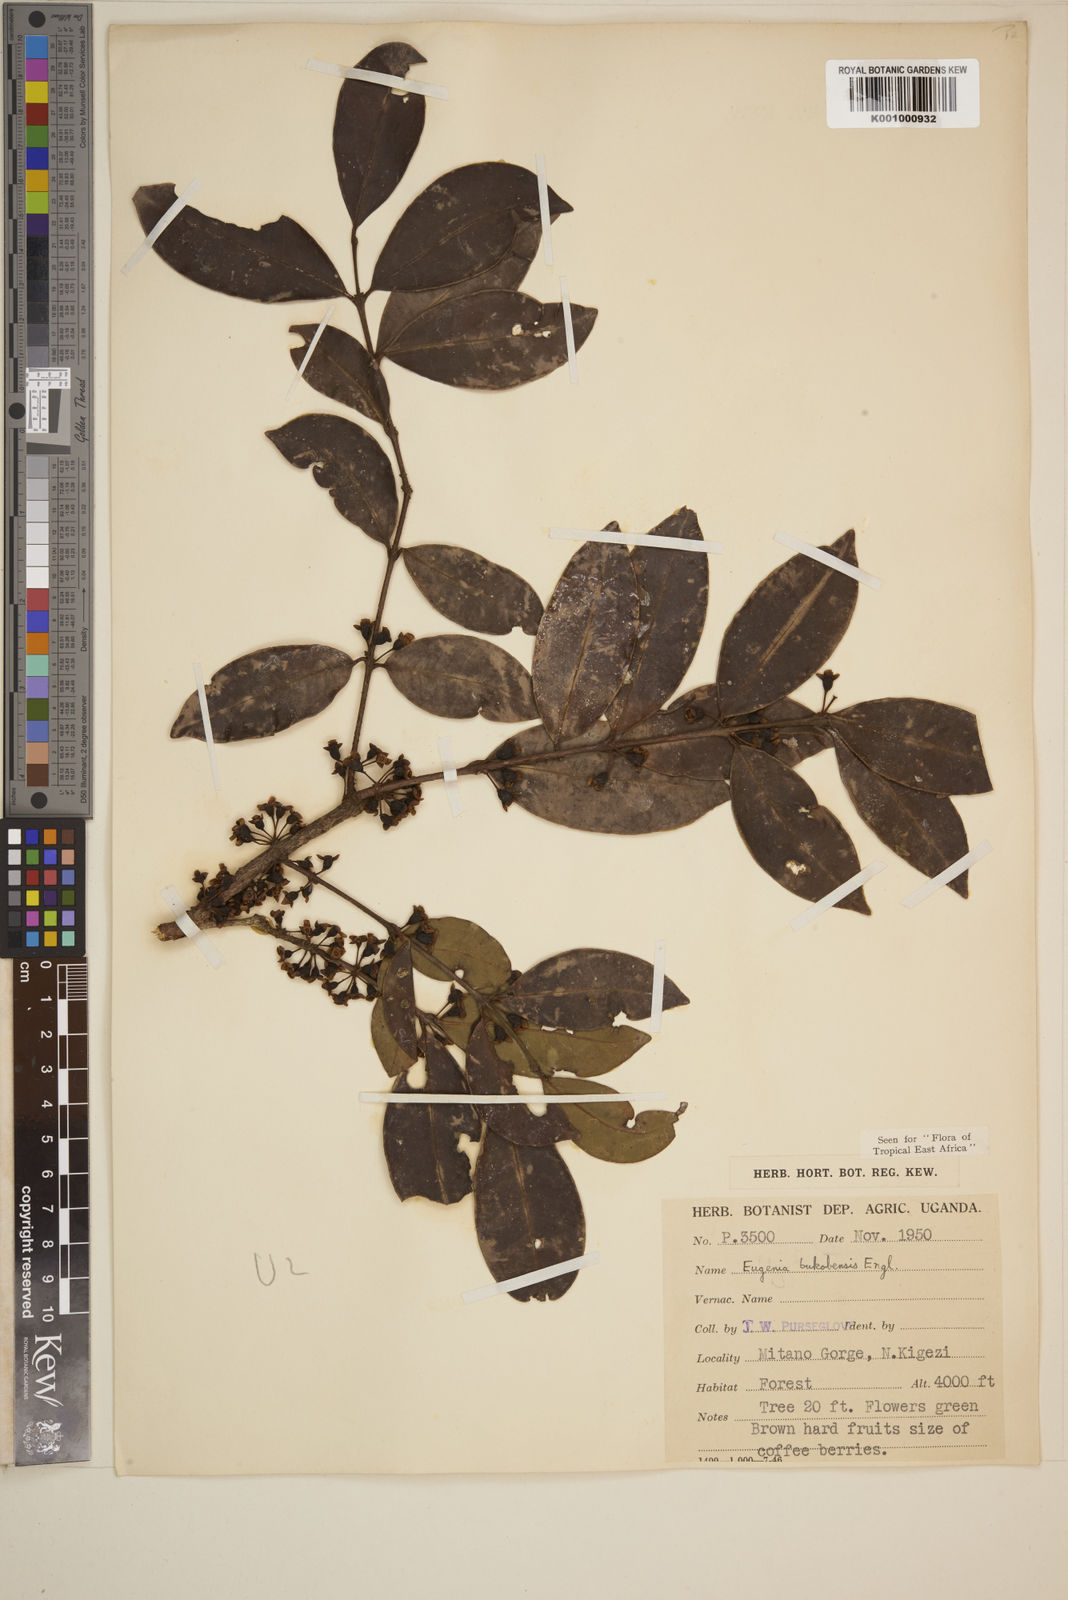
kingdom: Plantae
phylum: Tracheophyta
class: Magnoliopsida
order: Myrtales
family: Myrtaceae
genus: Eugenia
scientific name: Eugenia bukobensis
